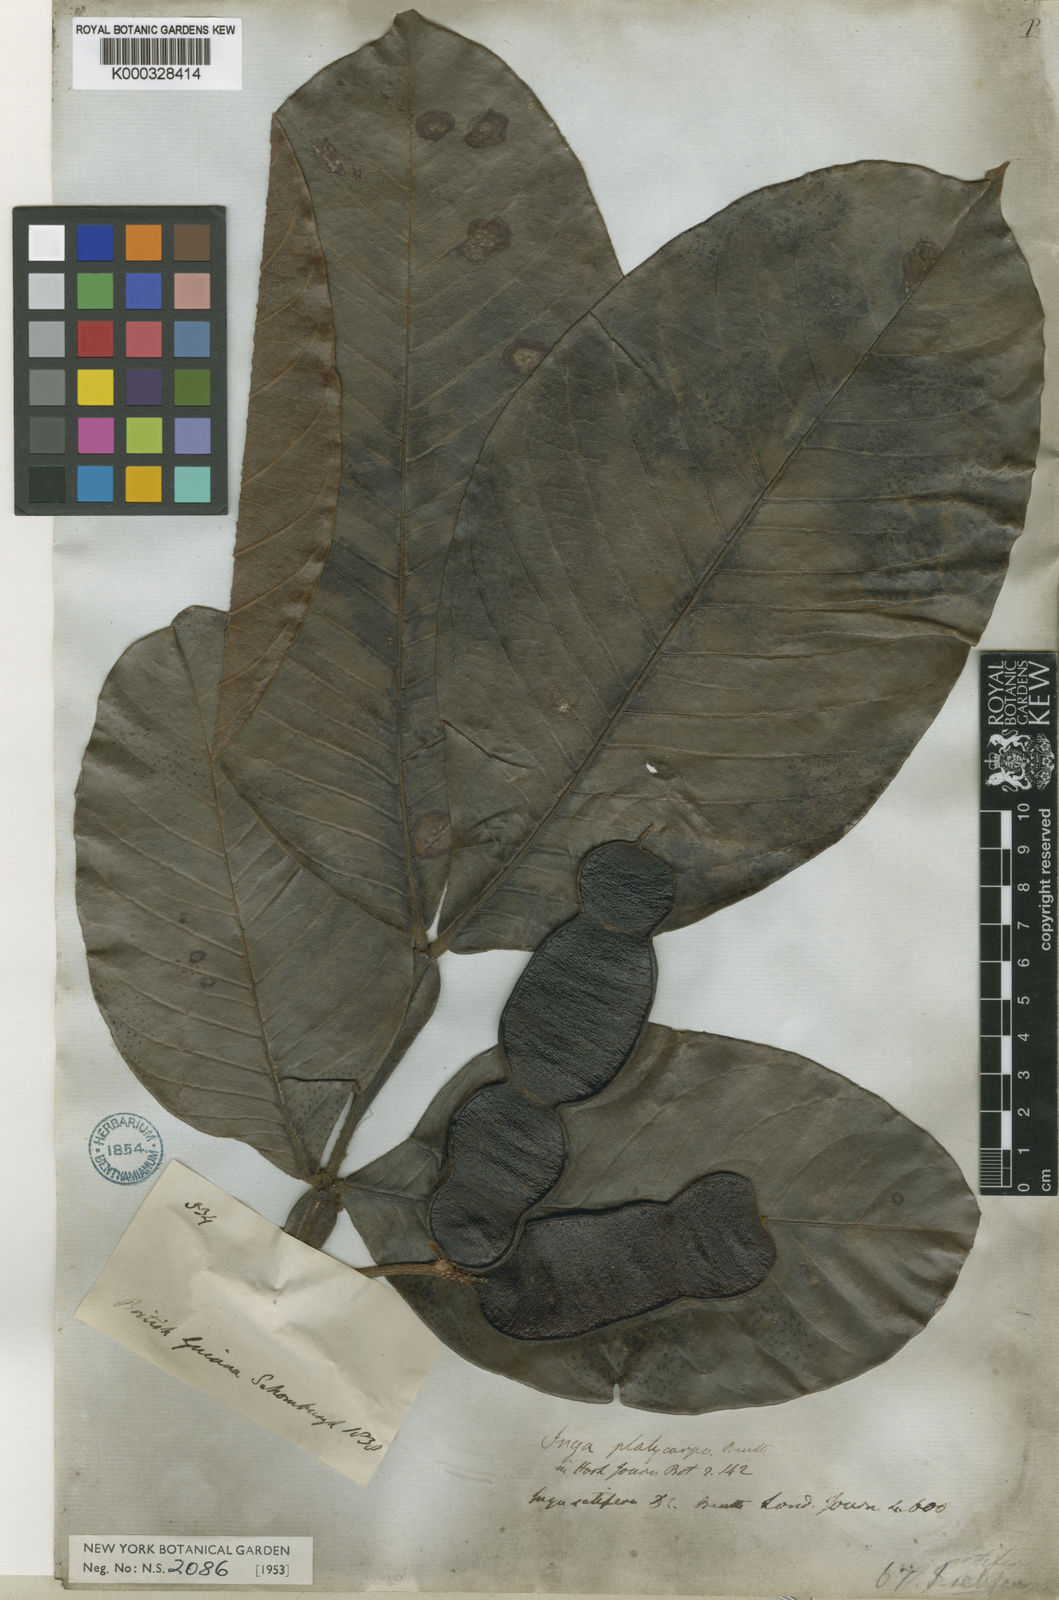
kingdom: Plantae
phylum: Tracheophyta
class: Magnoliopsida
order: Fabales
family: Fabaceae
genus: Inga
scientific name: Inga pilosula
